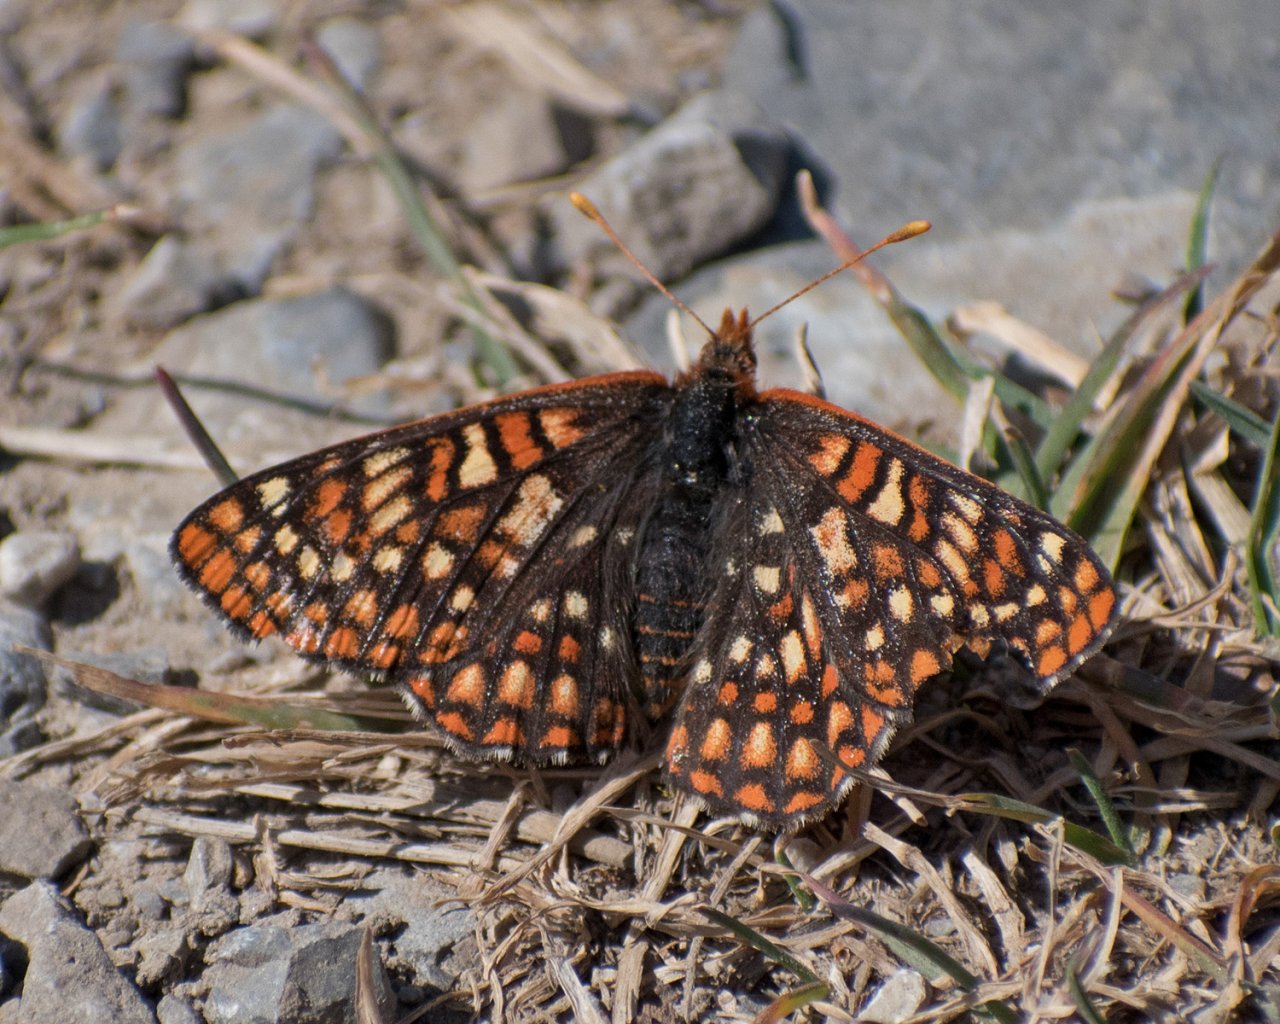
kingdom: Animalia
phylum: Arthropoda
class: Insecta
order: Lepidoptera
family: Nymphalidae
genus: Occidryas
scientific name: Occidryas anicia
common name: Anicia Checkerspot
